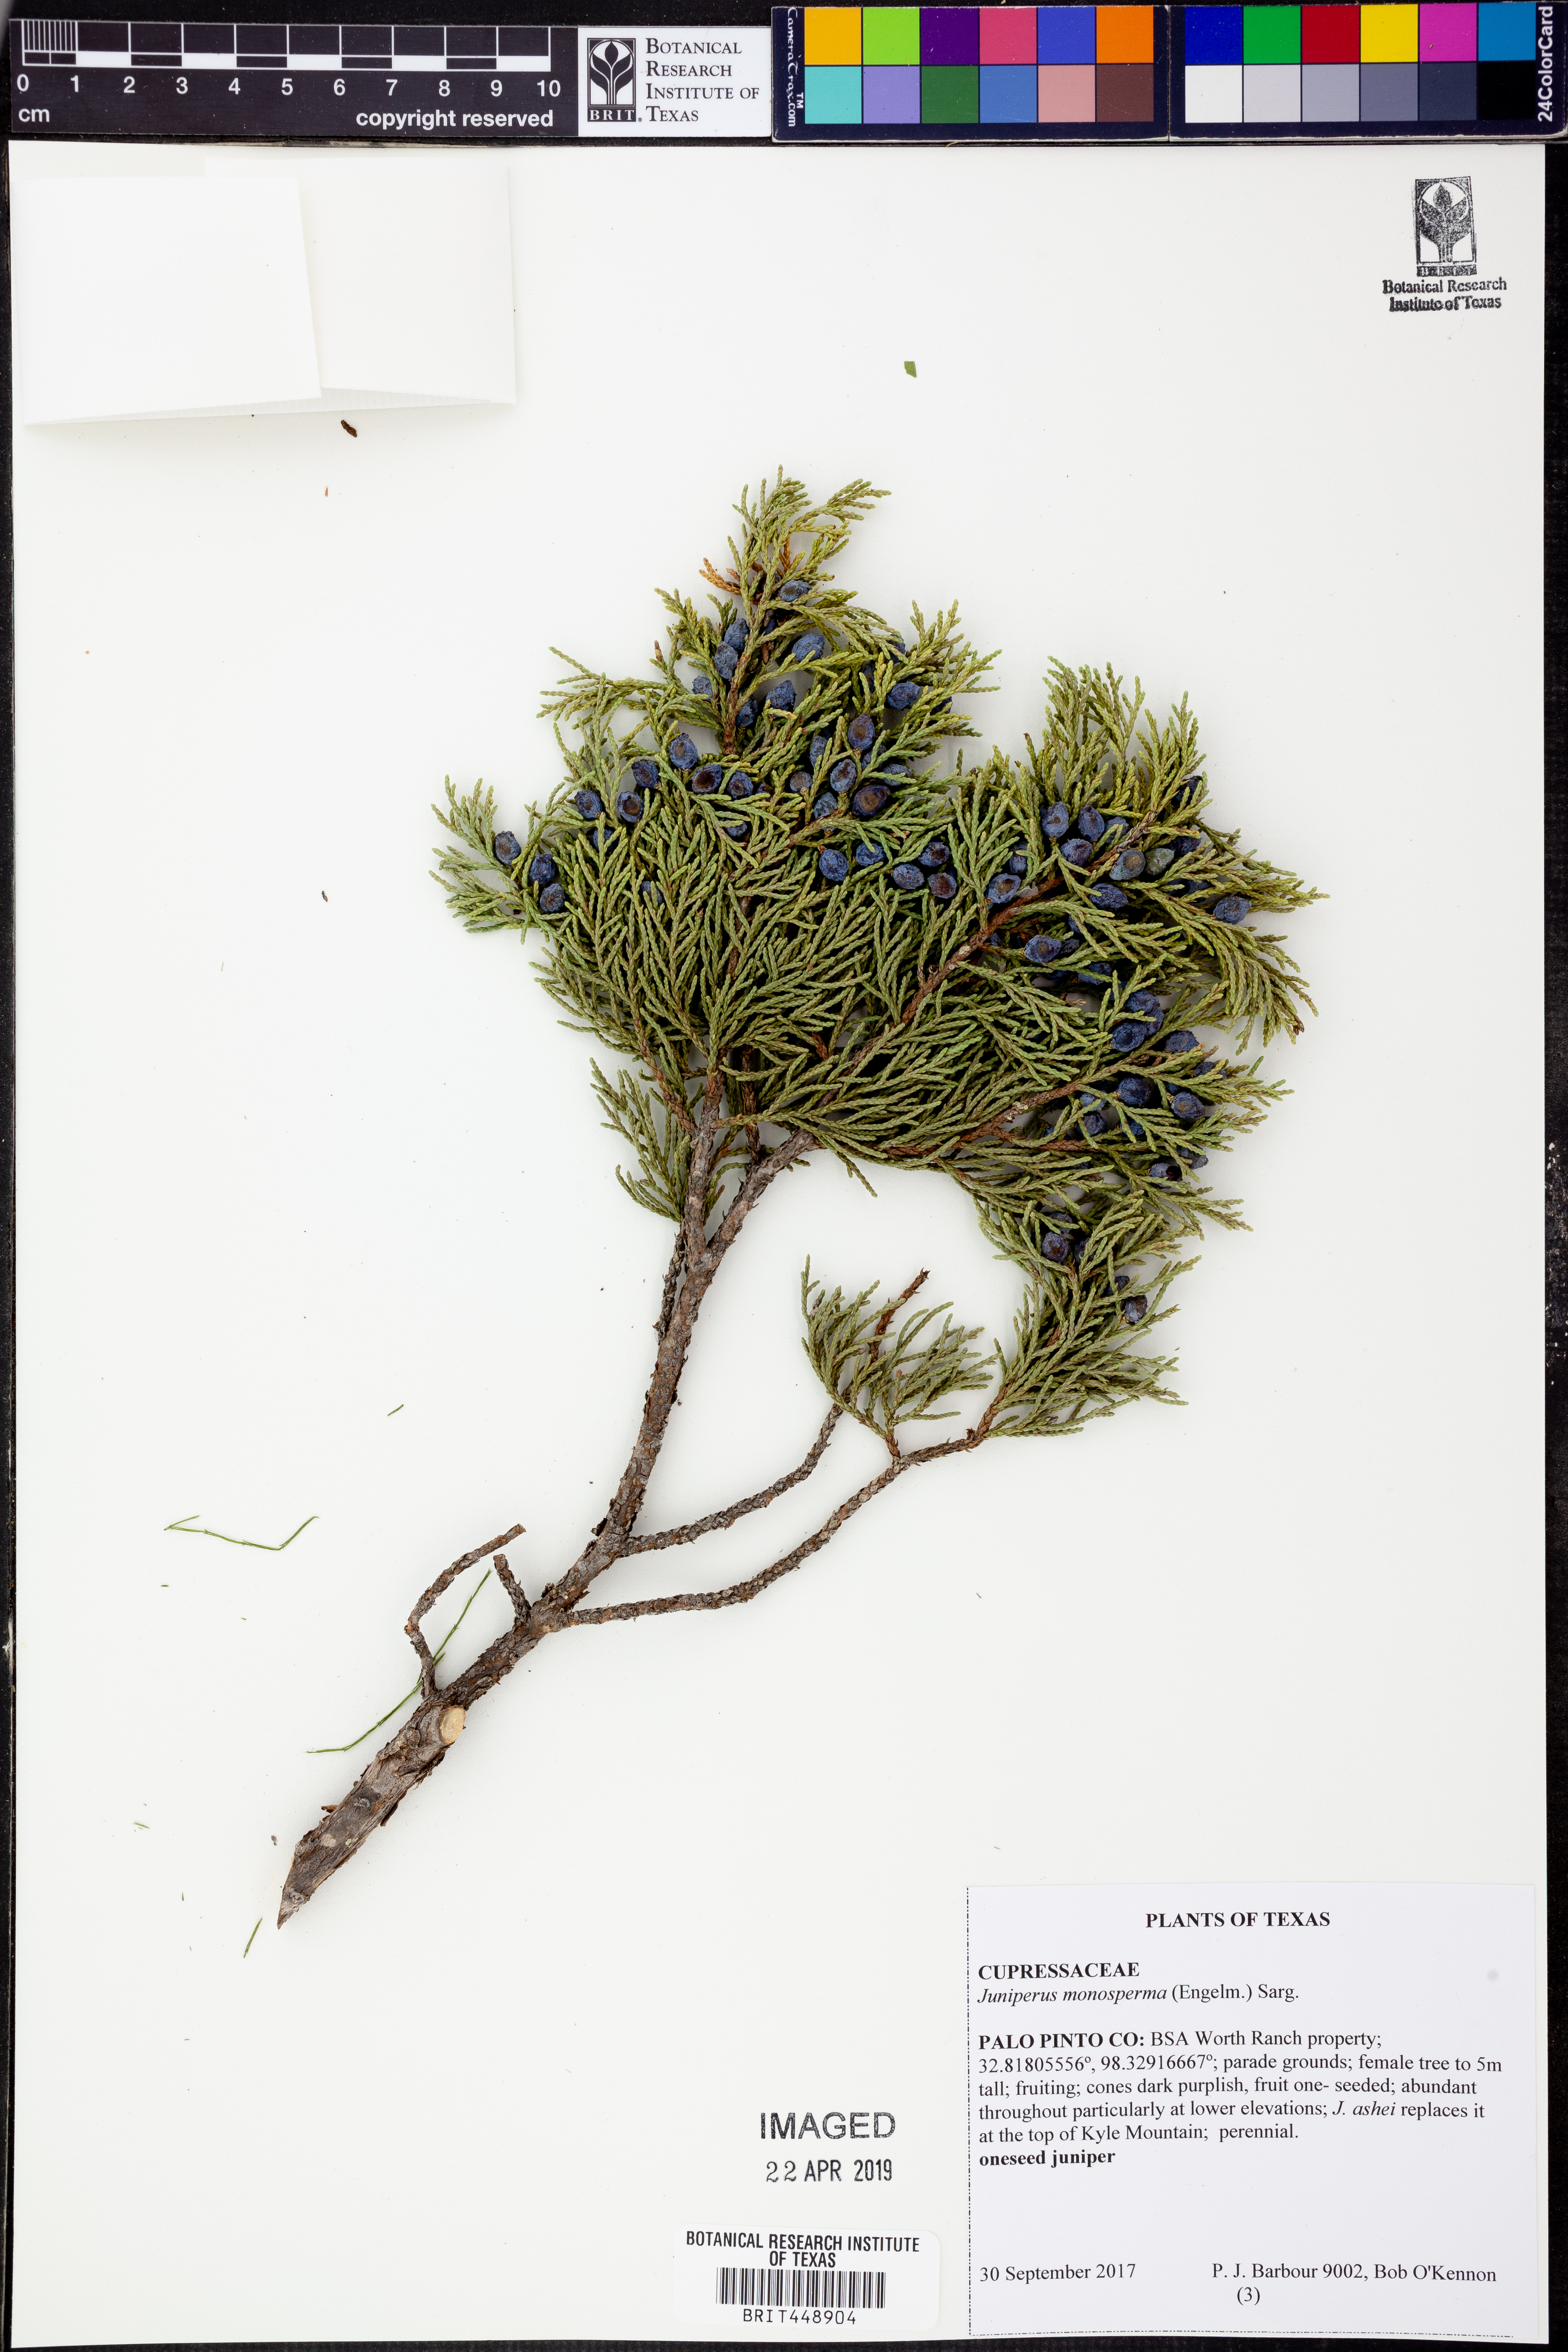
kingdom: Plantae
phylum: Tracheophyta
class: Pinopsida
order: Pinales
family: Cupressaceae
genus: Juniperus
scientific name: Juniperus monosperma
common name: One-seed juniper
